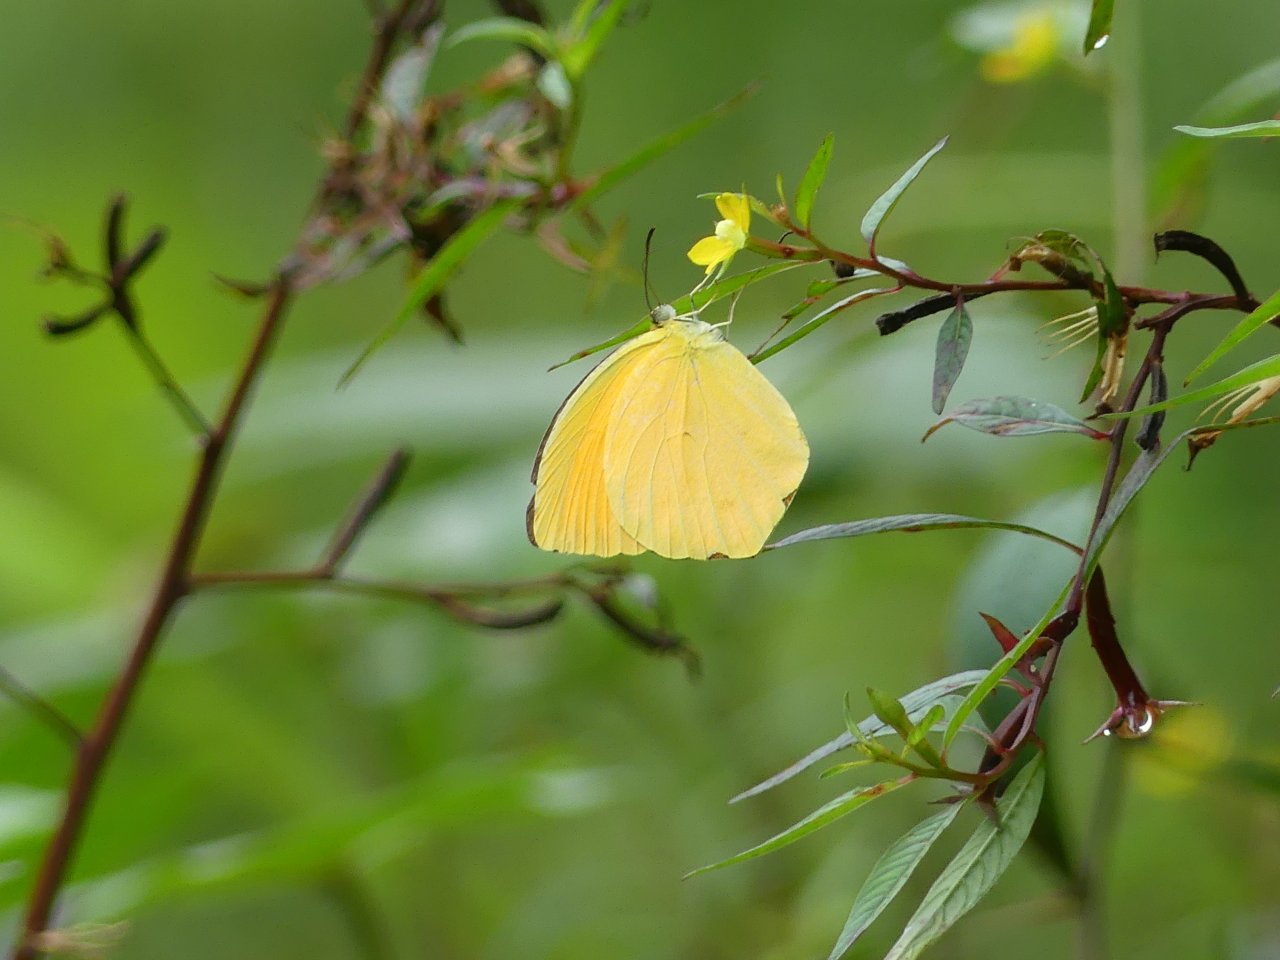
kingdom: Animalia
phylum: Arthropoda
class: Insecta
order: Lepidoptera
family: Pieridae
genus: Pyrisitia
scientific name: Pyrisitia proterpia
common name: Tailed Orange
